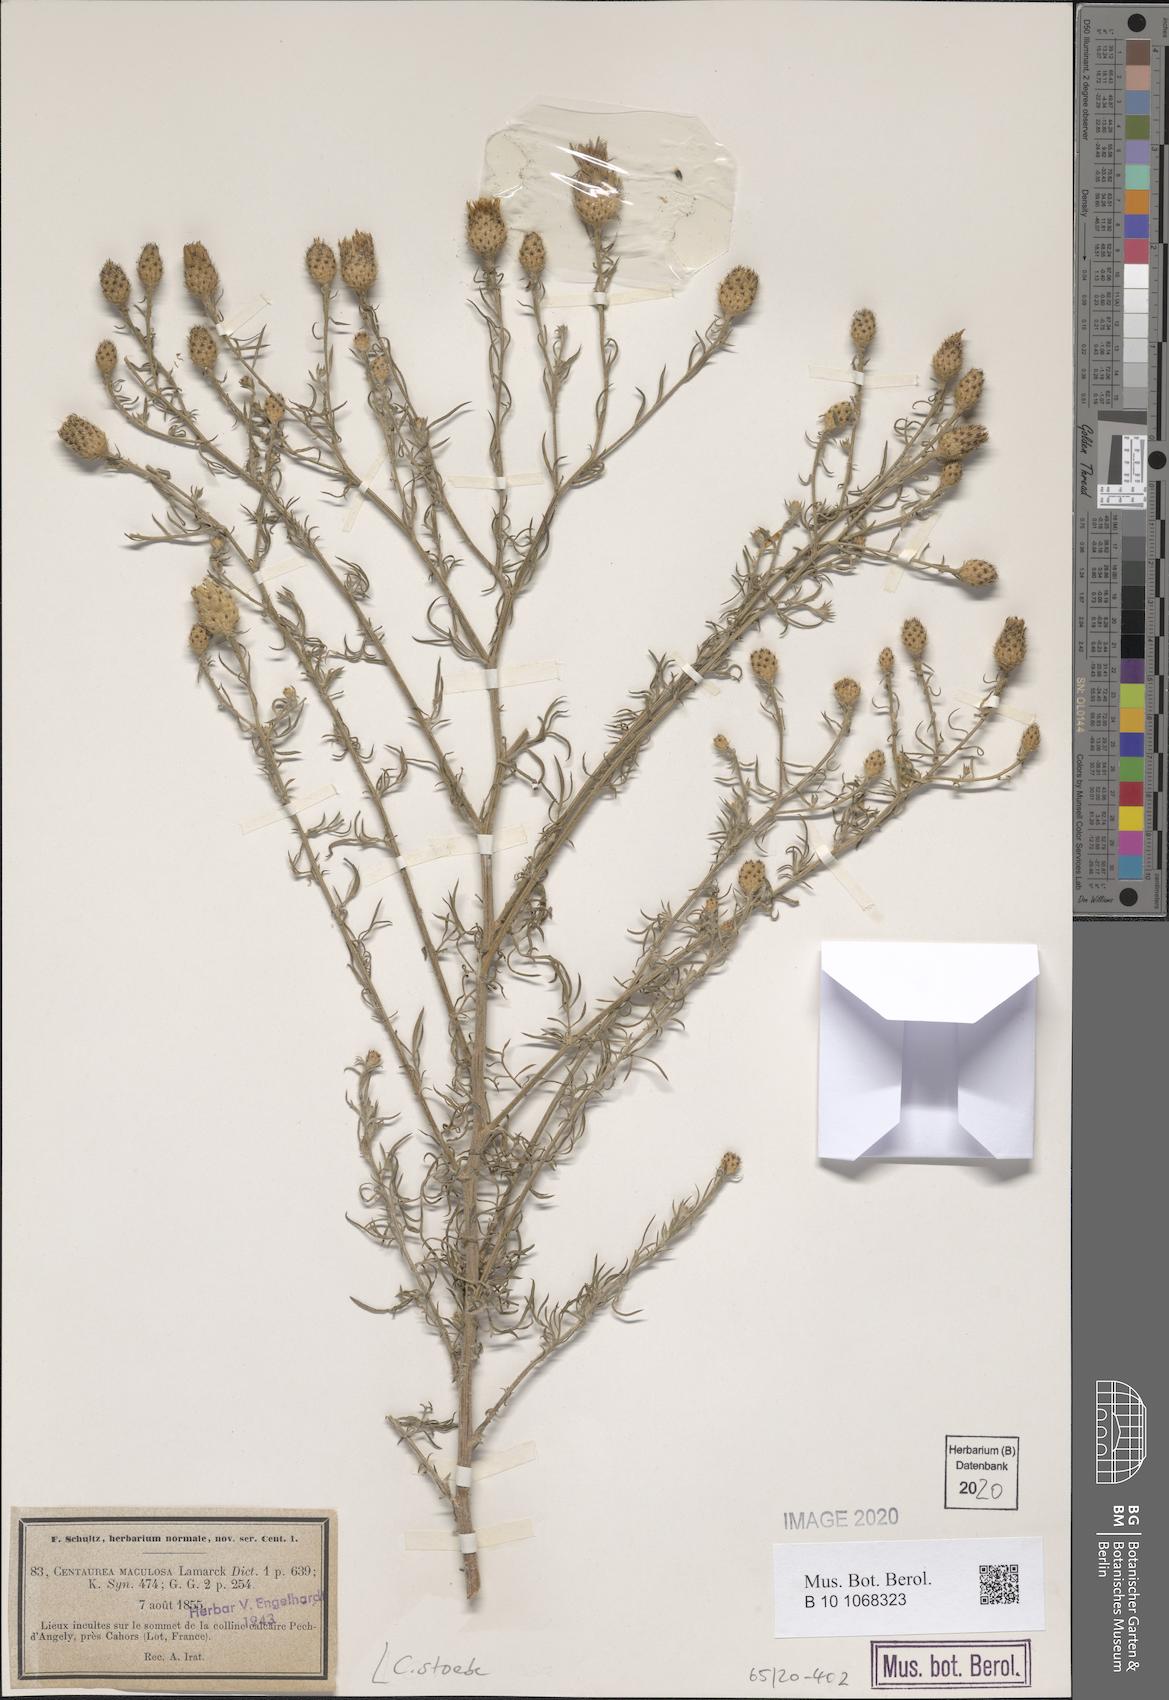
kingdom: Plantae
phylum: Tracheophyta
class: Magnoliopsida
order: Asterales
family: Asteraceae
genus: Centaurea
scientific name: Centaurea stoebe
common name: Spotted knapweed
